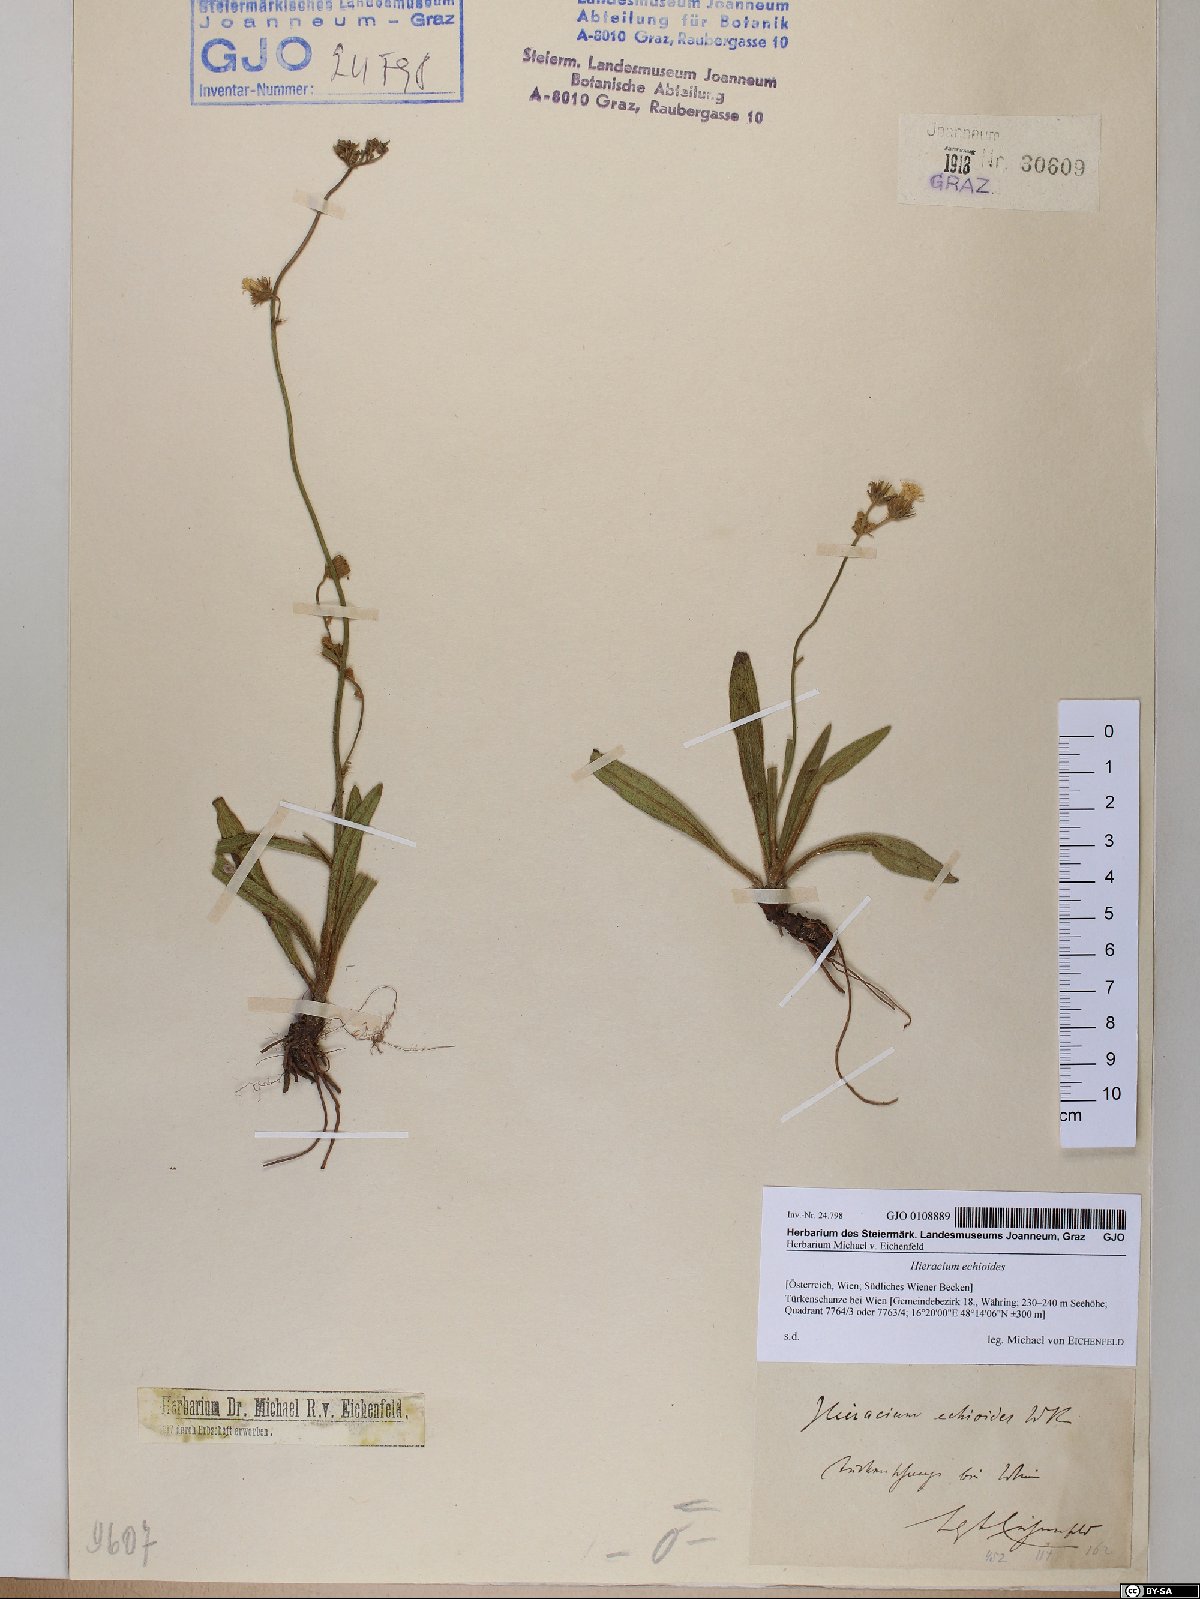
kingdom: Plantae
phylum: Tracheophyta
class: Magnoliopsida
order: Asterales
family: Asteraceae
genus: Pilosella
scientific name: Pilosella echioides
